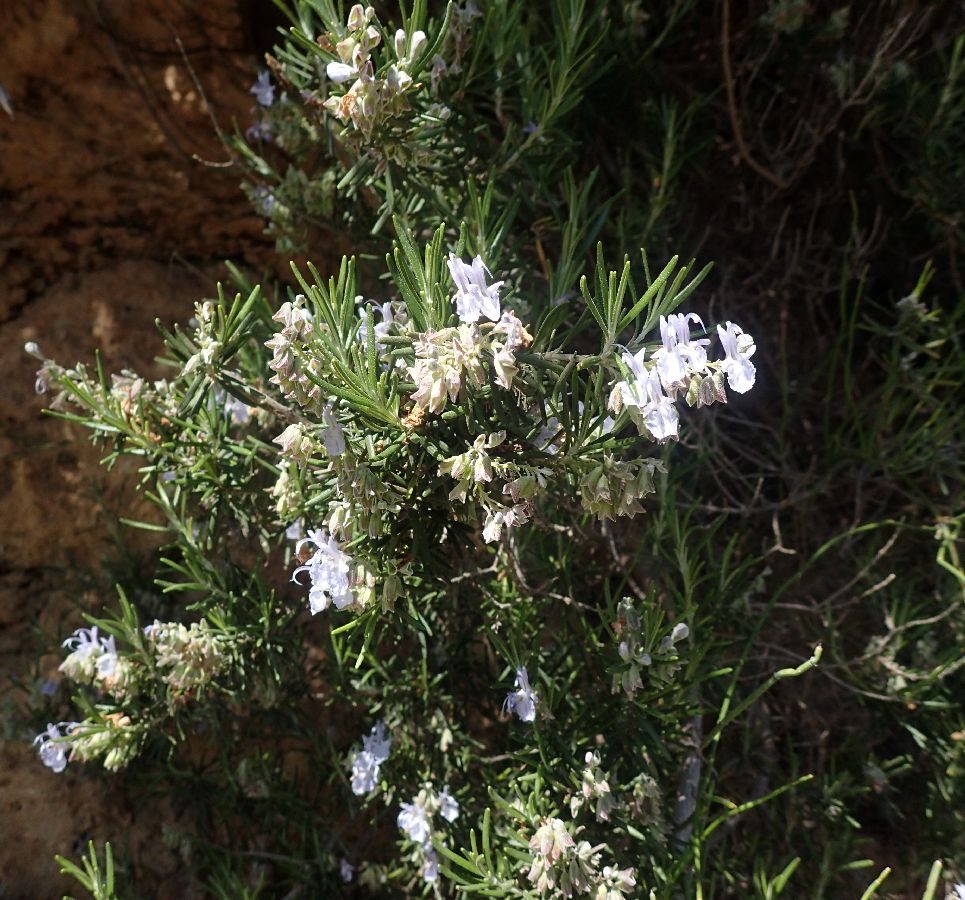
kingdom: Plantae
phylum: Tracheophyta
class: Magnoliopsida
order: Lamiales
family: Lamiaceae
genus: Salvia
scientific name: Salvia rosmarinus
